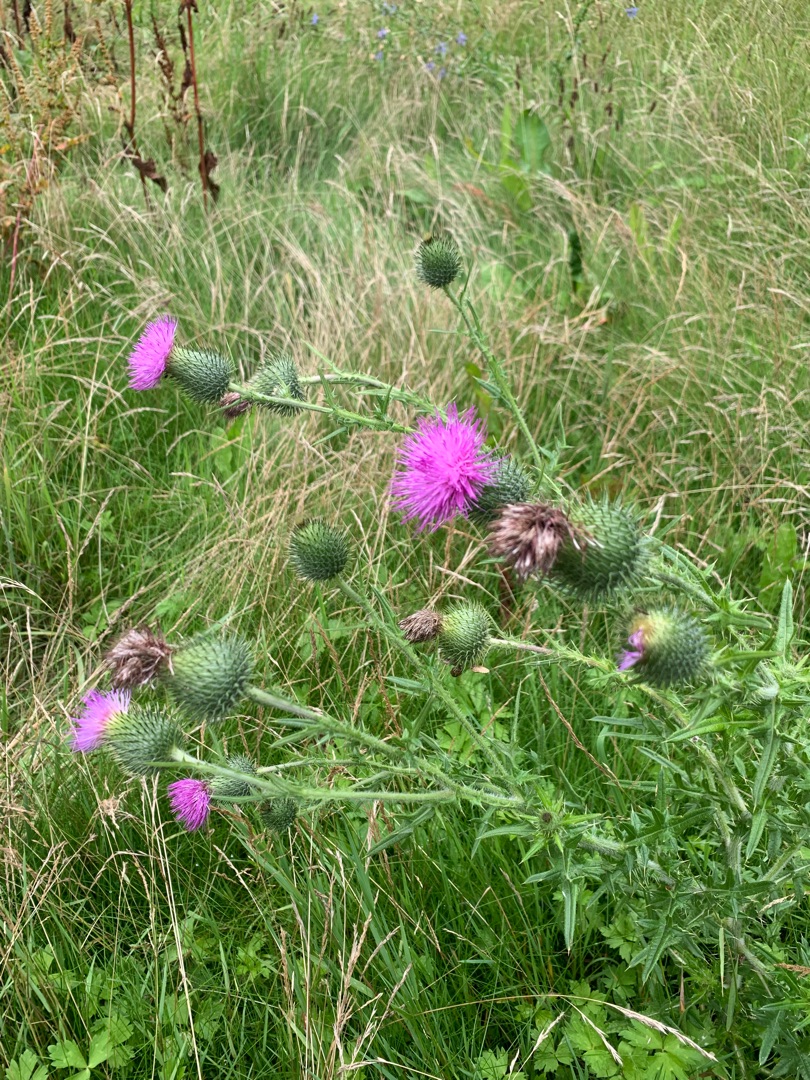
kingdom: Plantae
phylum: Tracheophyta
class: Magnoliopsida
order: Asterales
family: Asteraceae
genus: Cirsium
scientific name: Cirsium vulgare
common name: Horse-tidsel
